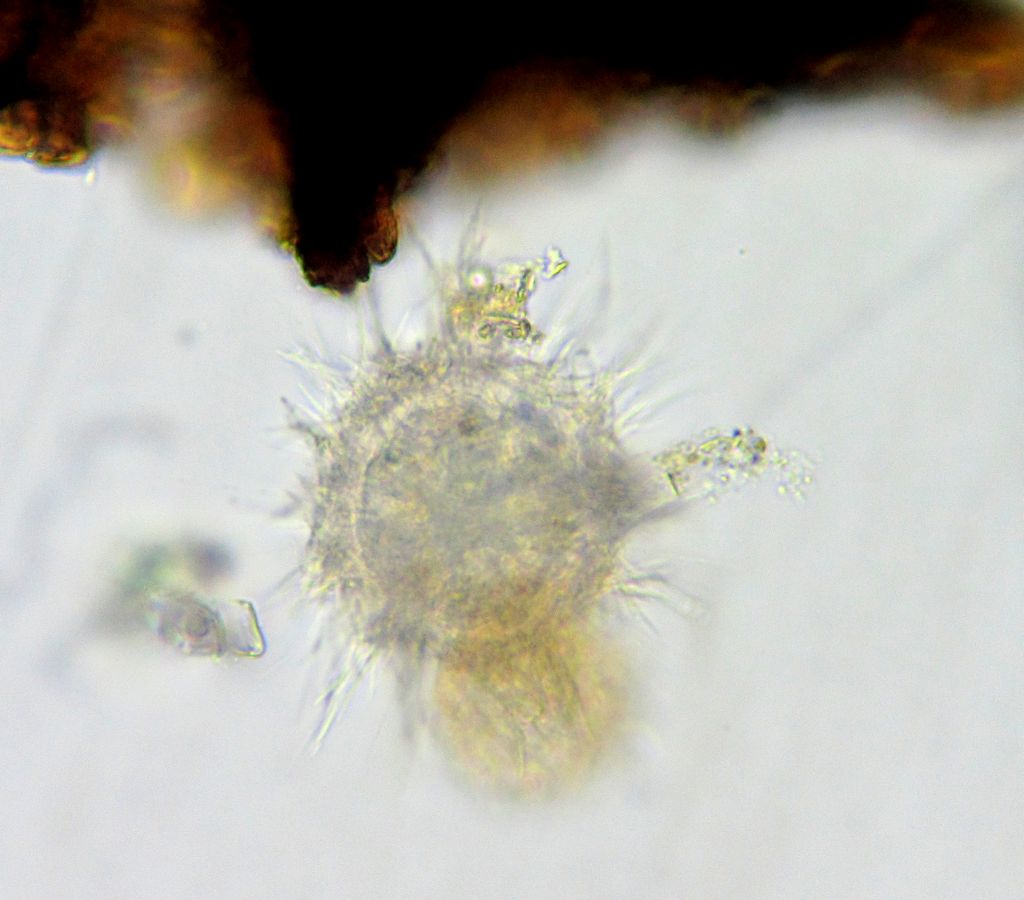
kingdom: Animalia
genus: Raphidiophrys
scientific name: Raphidiophrys
